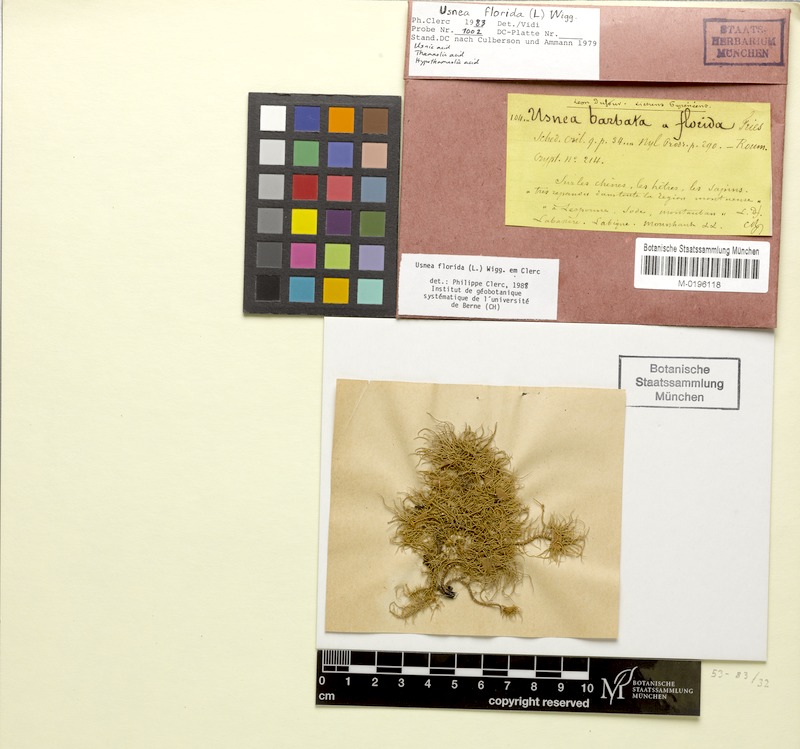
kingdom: Fungi
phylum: Ascomycota
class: Lecanoromycetes
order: Lecanorales
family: Parmeliaceae
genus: Usnea
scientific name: Usnea florida
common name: Witches' whiskers lichen
